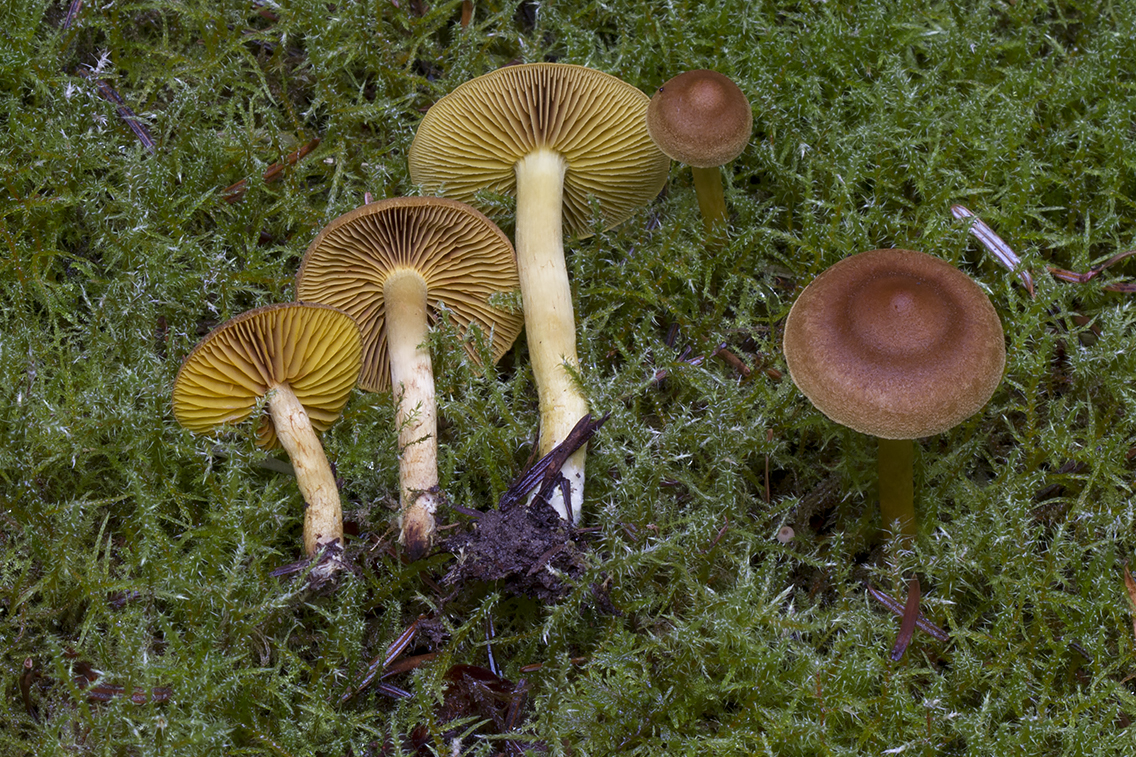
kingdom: Fungi
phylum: Basidiomycota
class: Agaricomycetes
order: Agaricales
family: Cortinariaceae
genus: Cortinarius
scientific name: Cortinarius croceus
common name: Saffron webcap
